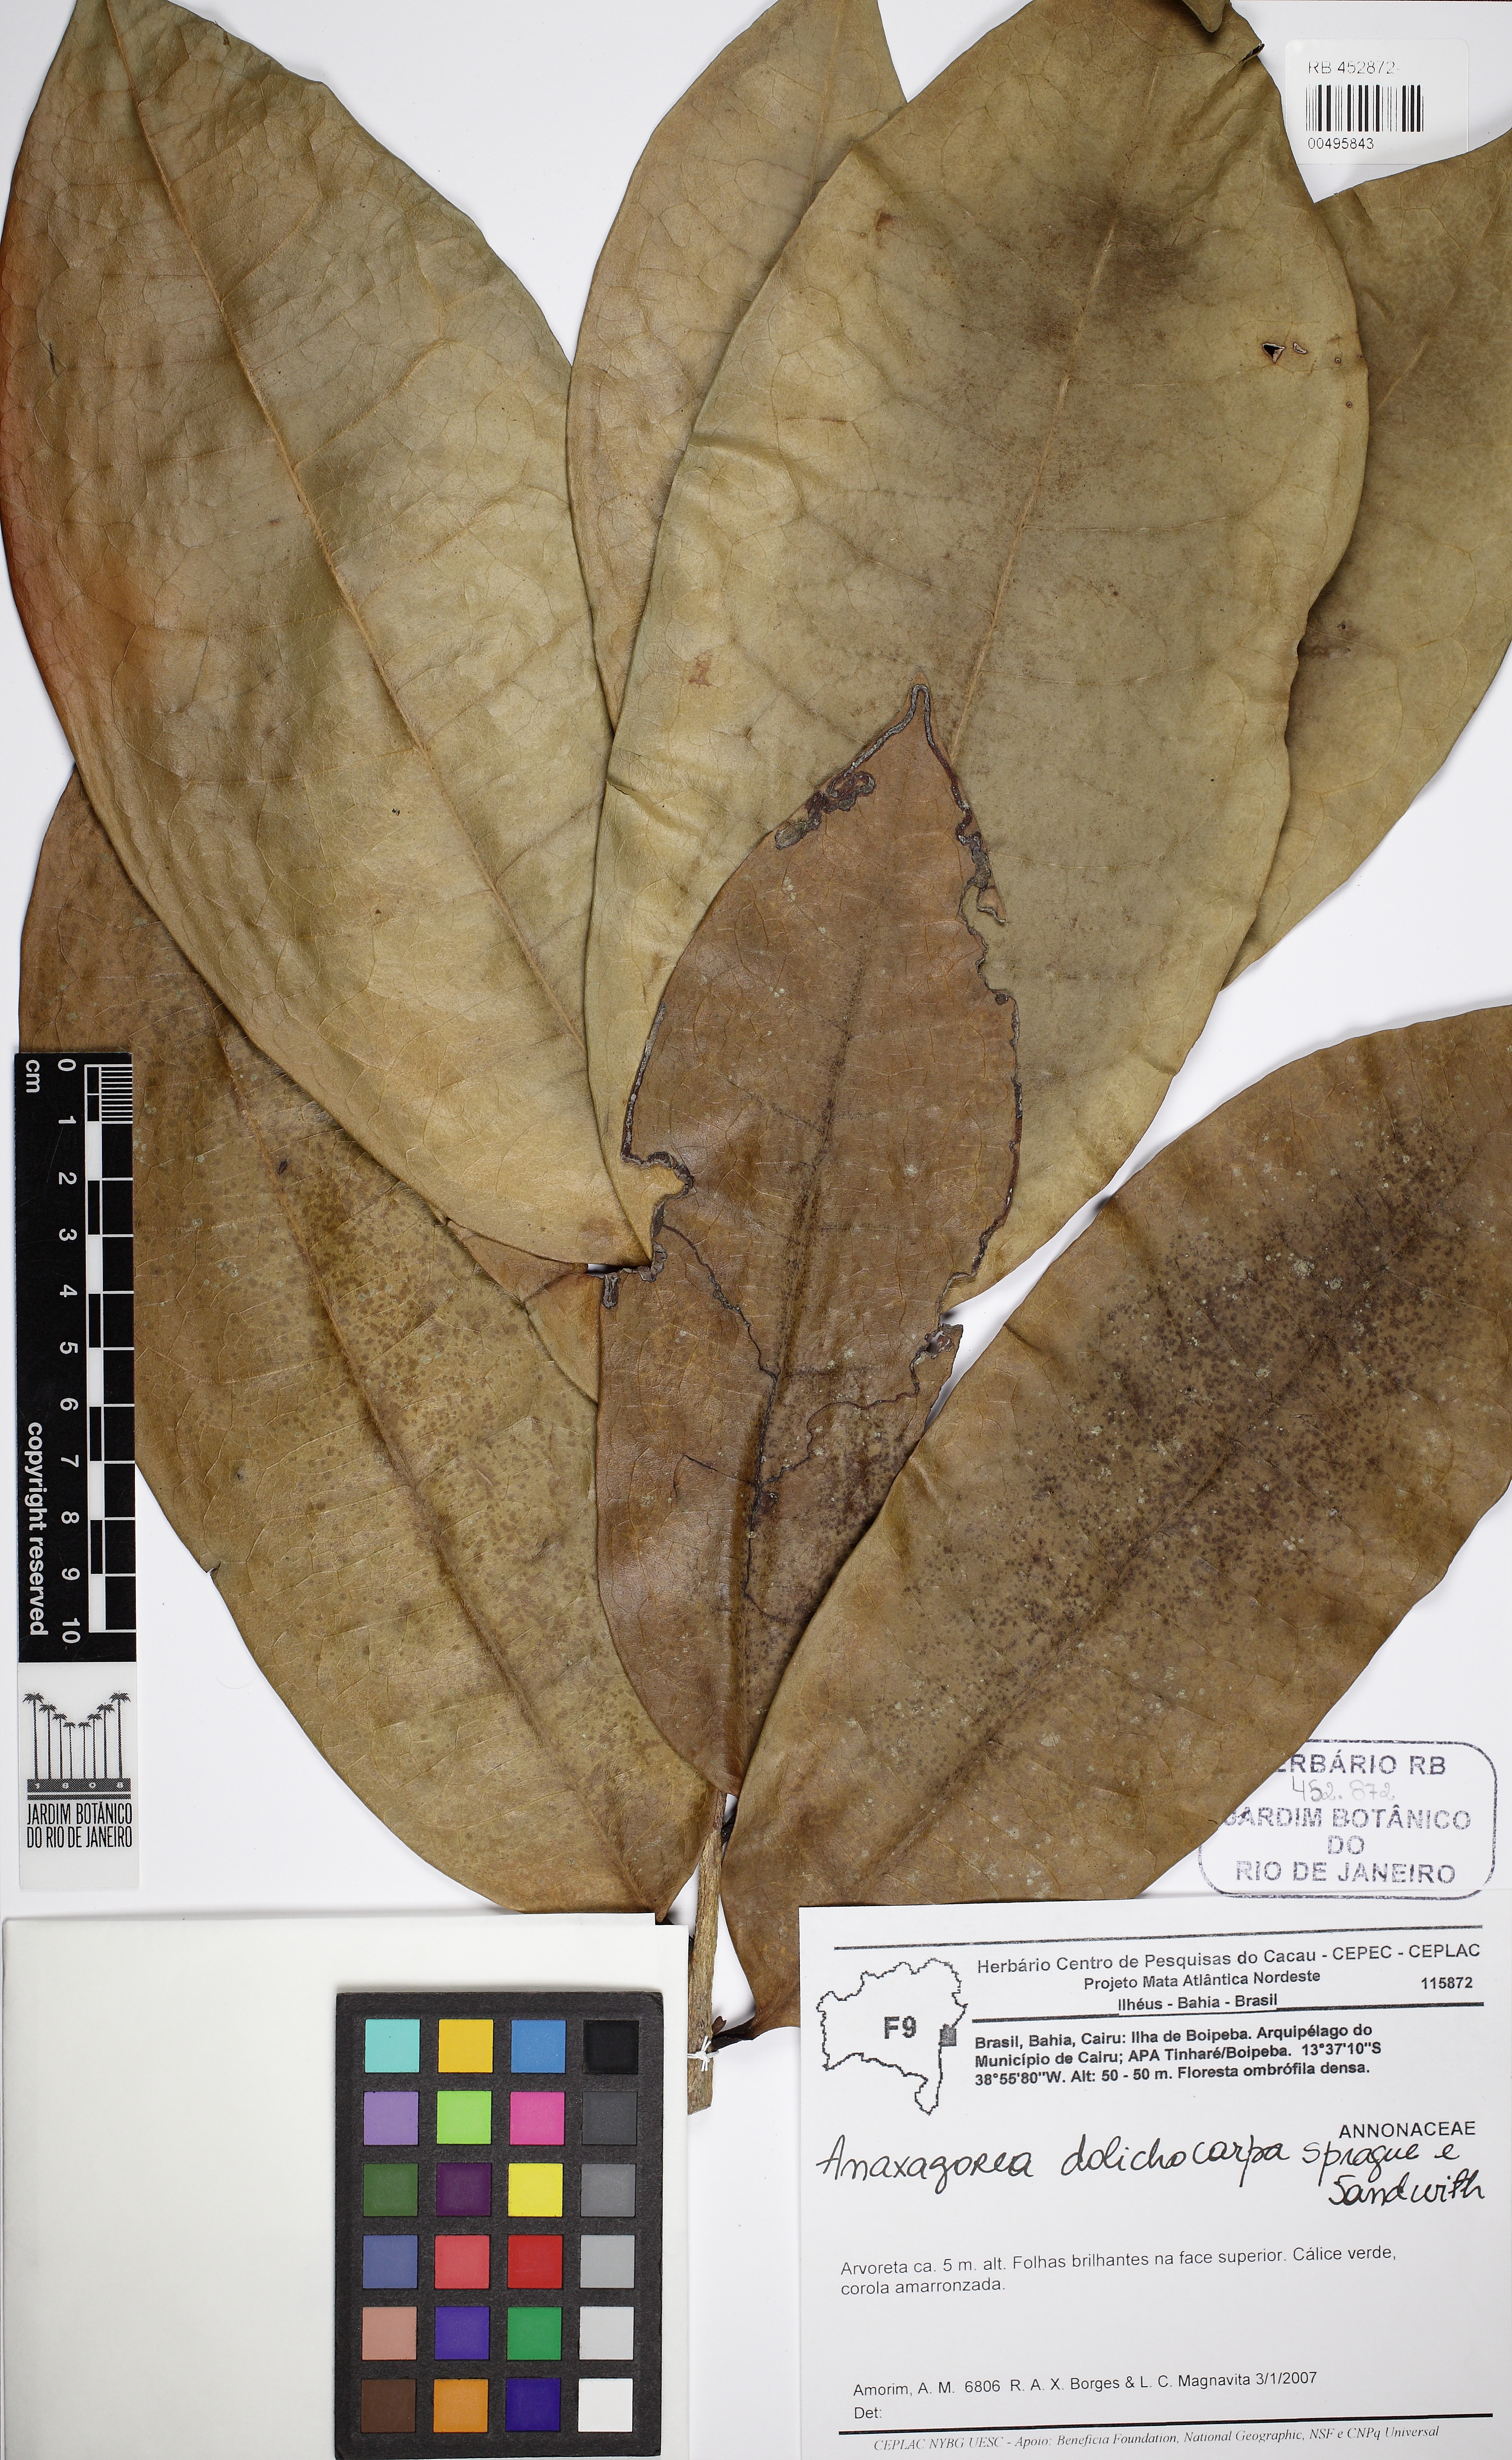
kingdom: Plantae
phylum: Tracheophyta
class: Magnoliopsida
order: Magnoliales
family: Annonaceae
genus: Anaxagorea
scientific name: Anaxagorea dolichocarpa
